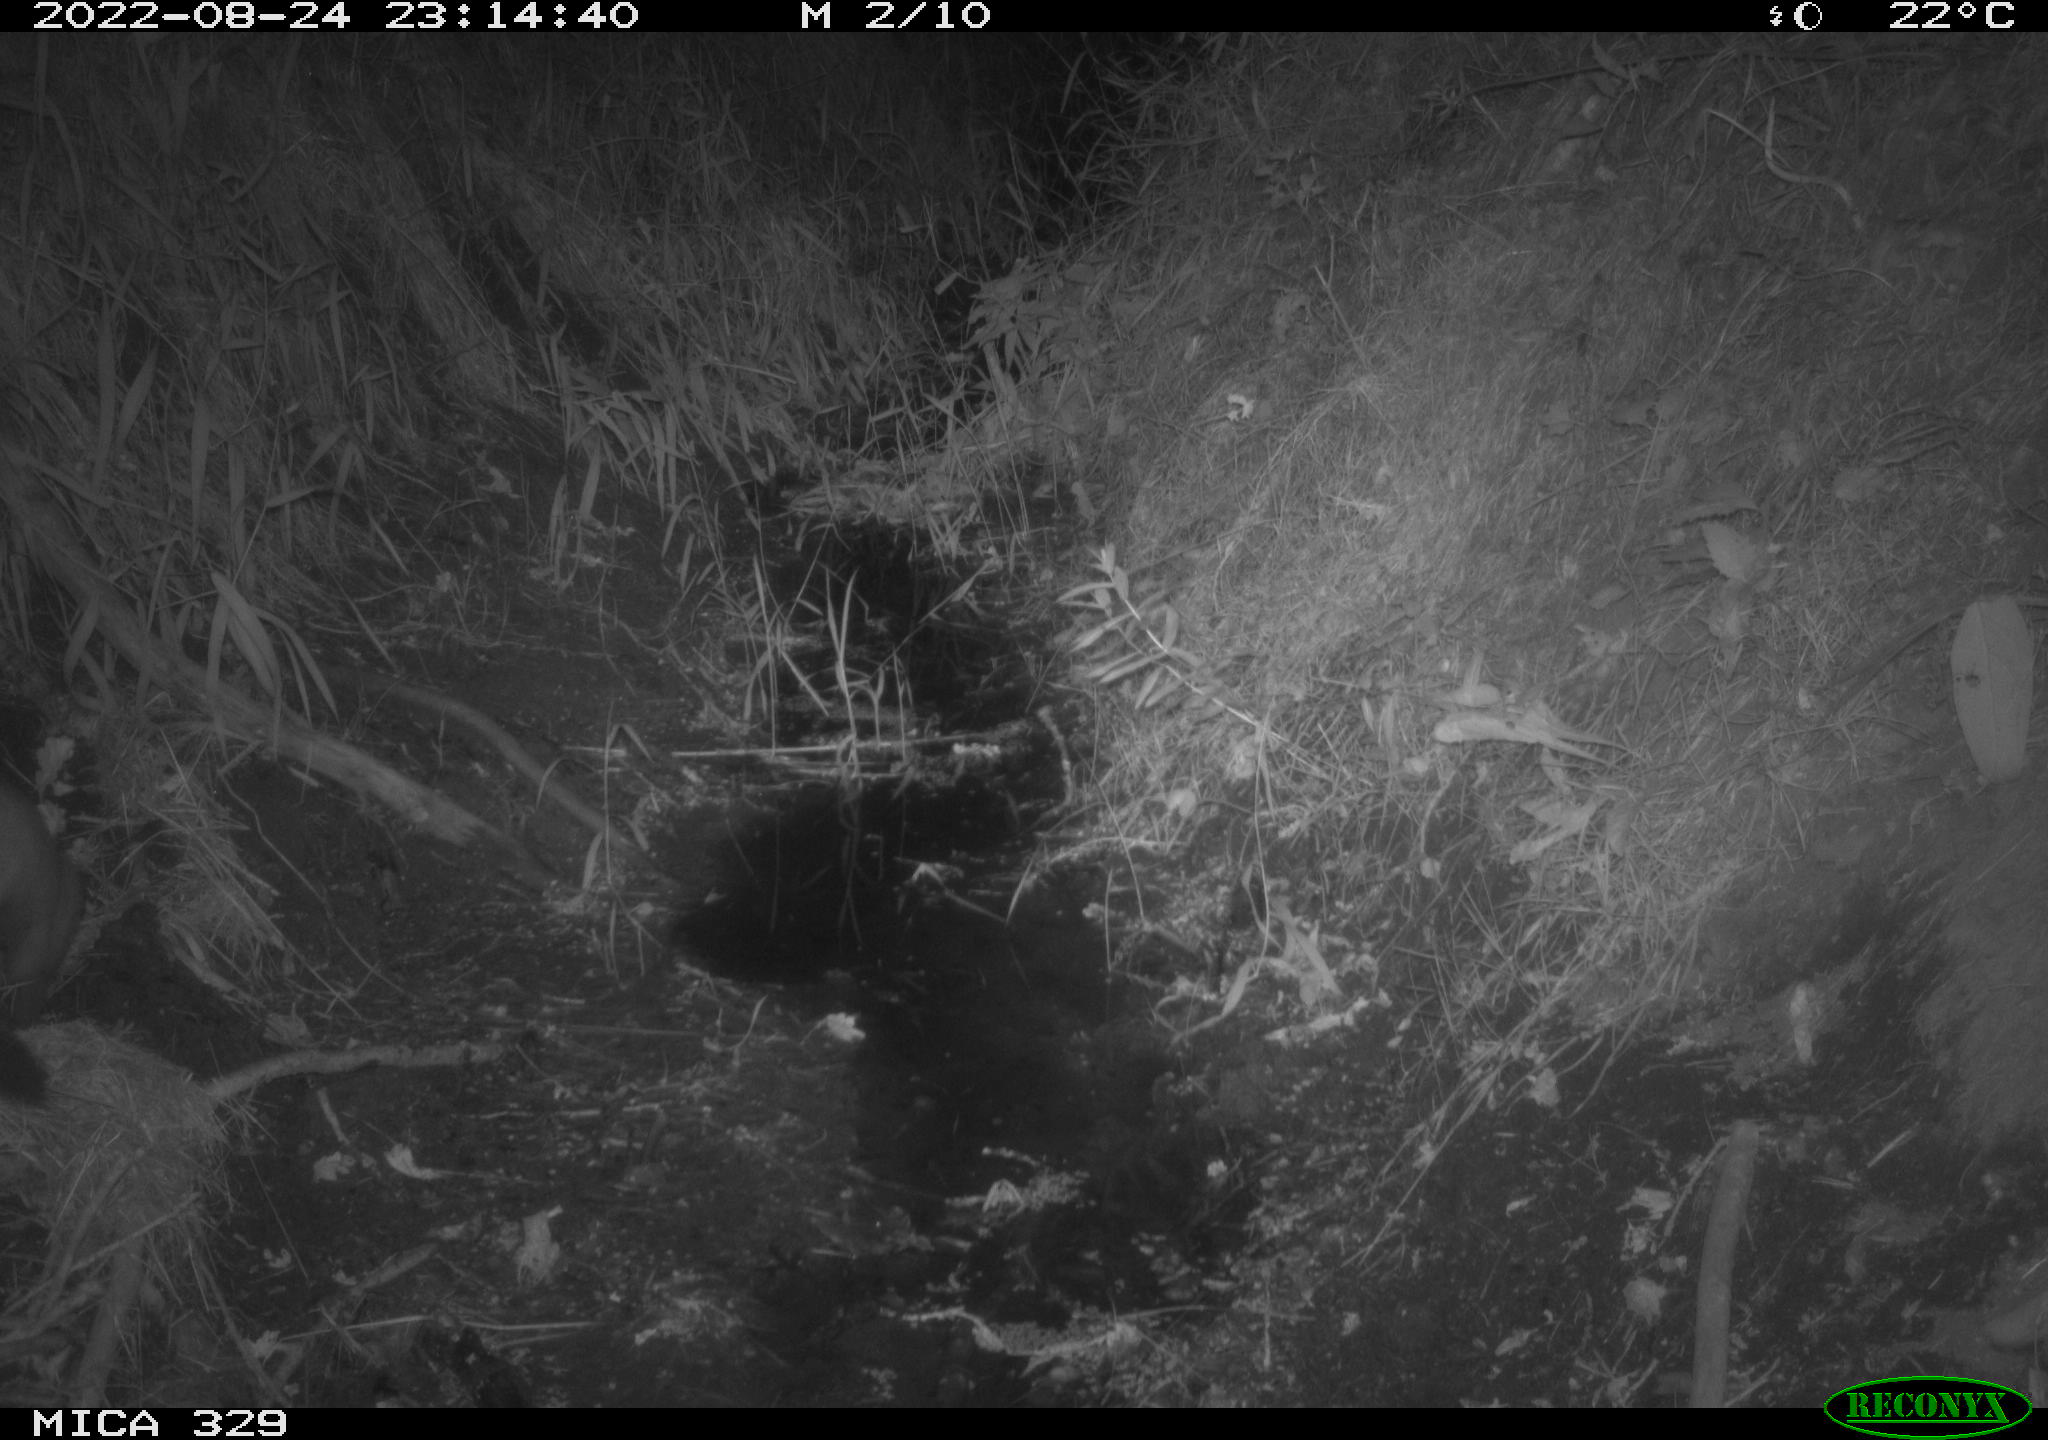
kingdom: Animalia
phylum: Chordata
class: Mammalia
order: Carnivora
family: Mustelidae
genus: Martes
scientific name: Martes martes
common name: European pine marten
